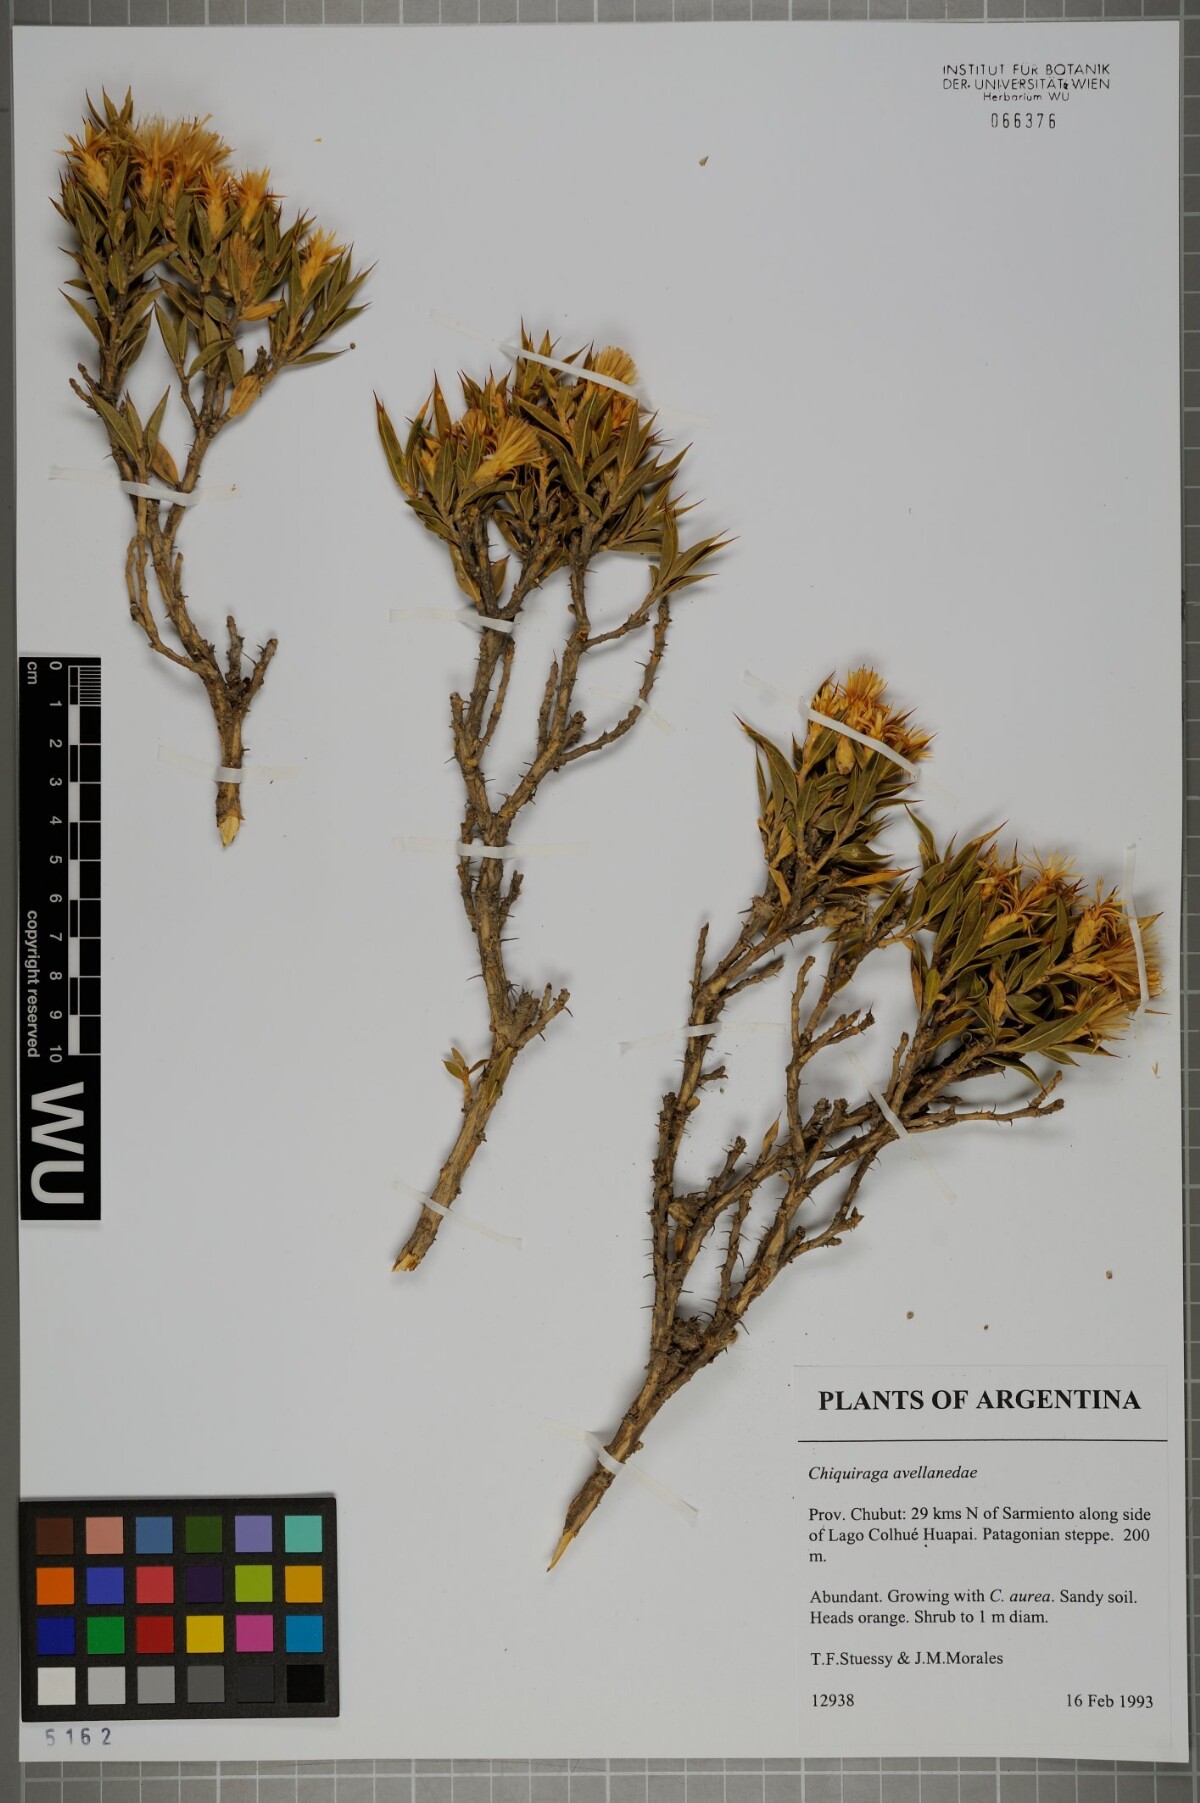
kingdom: Plantae
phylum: Tracheophyta
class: Magnoliopsida
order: Asterales
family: Asteraceae
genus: Chuquiraga
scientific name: Chuquiraga avellanedae
